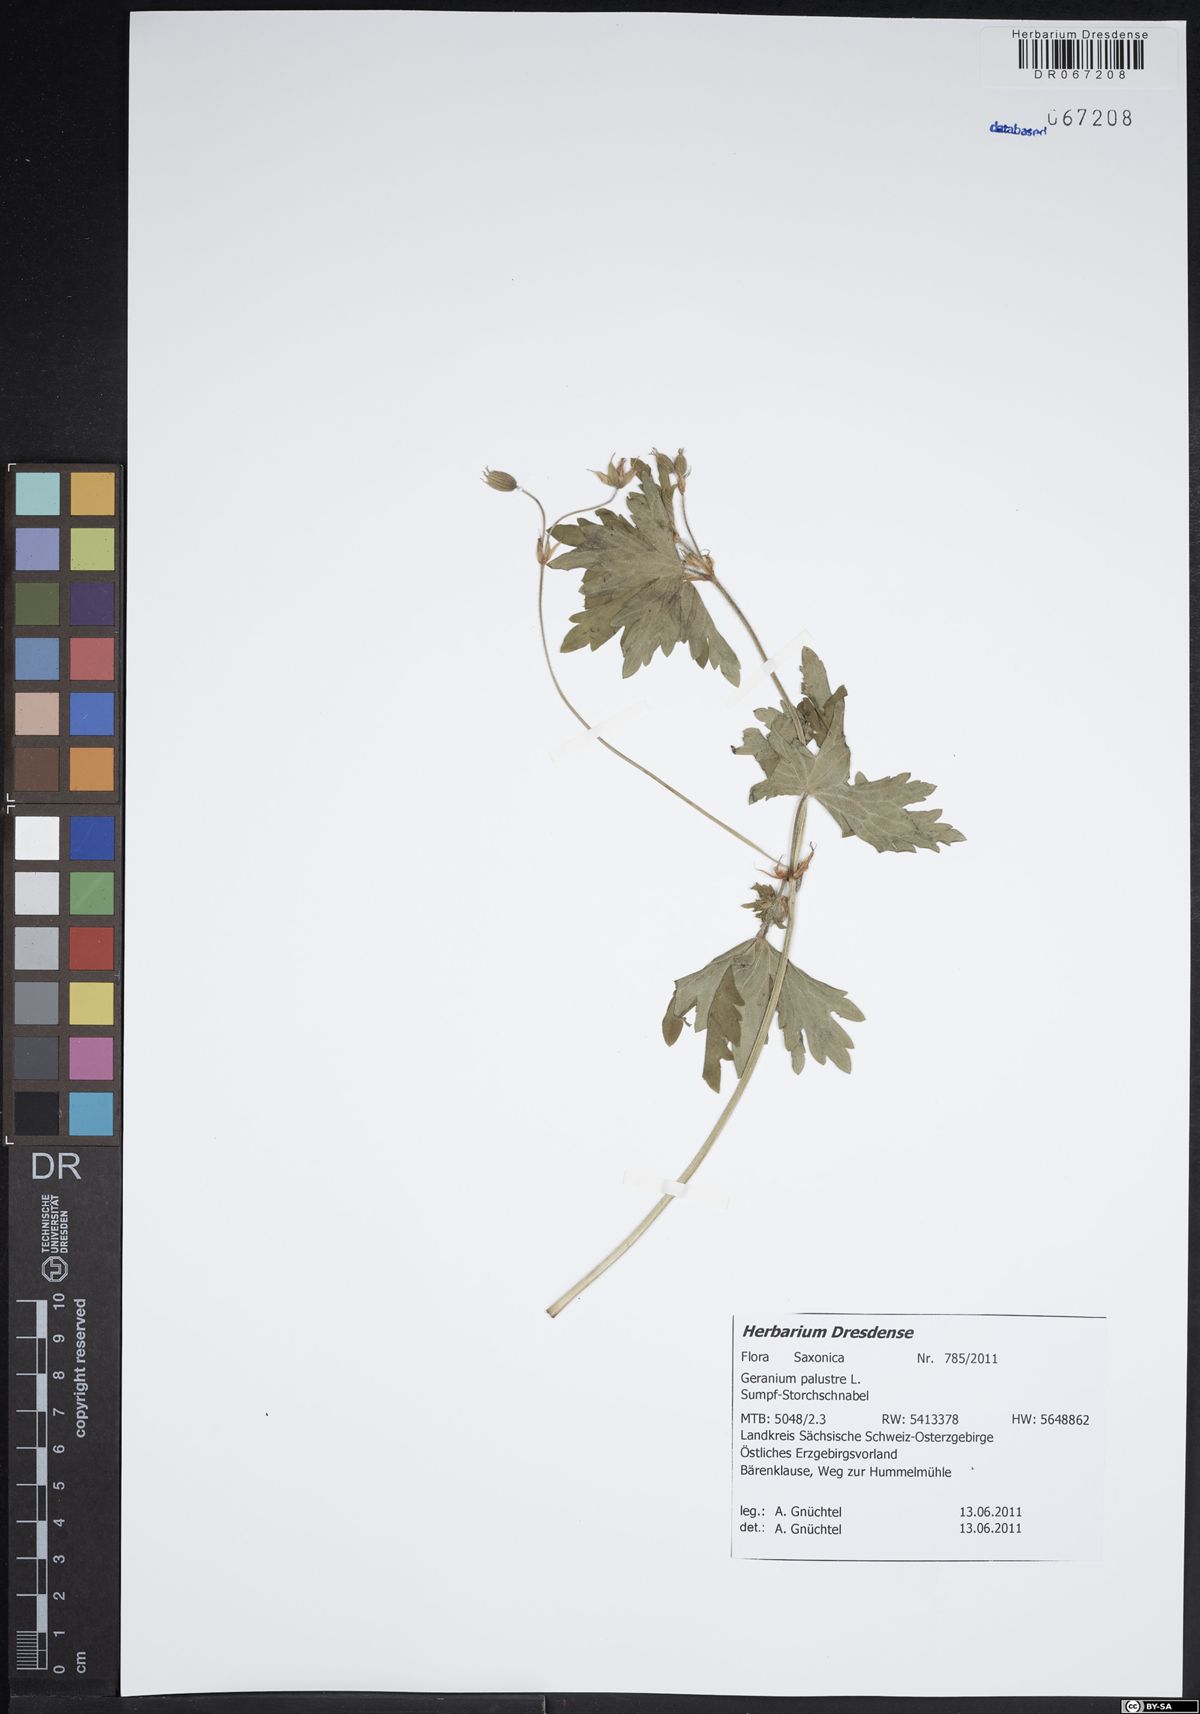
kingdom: Plantae
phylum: Tracheophyta
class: Magnoliopsida
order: Geraniales
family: Geraniaceae
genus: Geranium
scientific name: Geranium palustre
